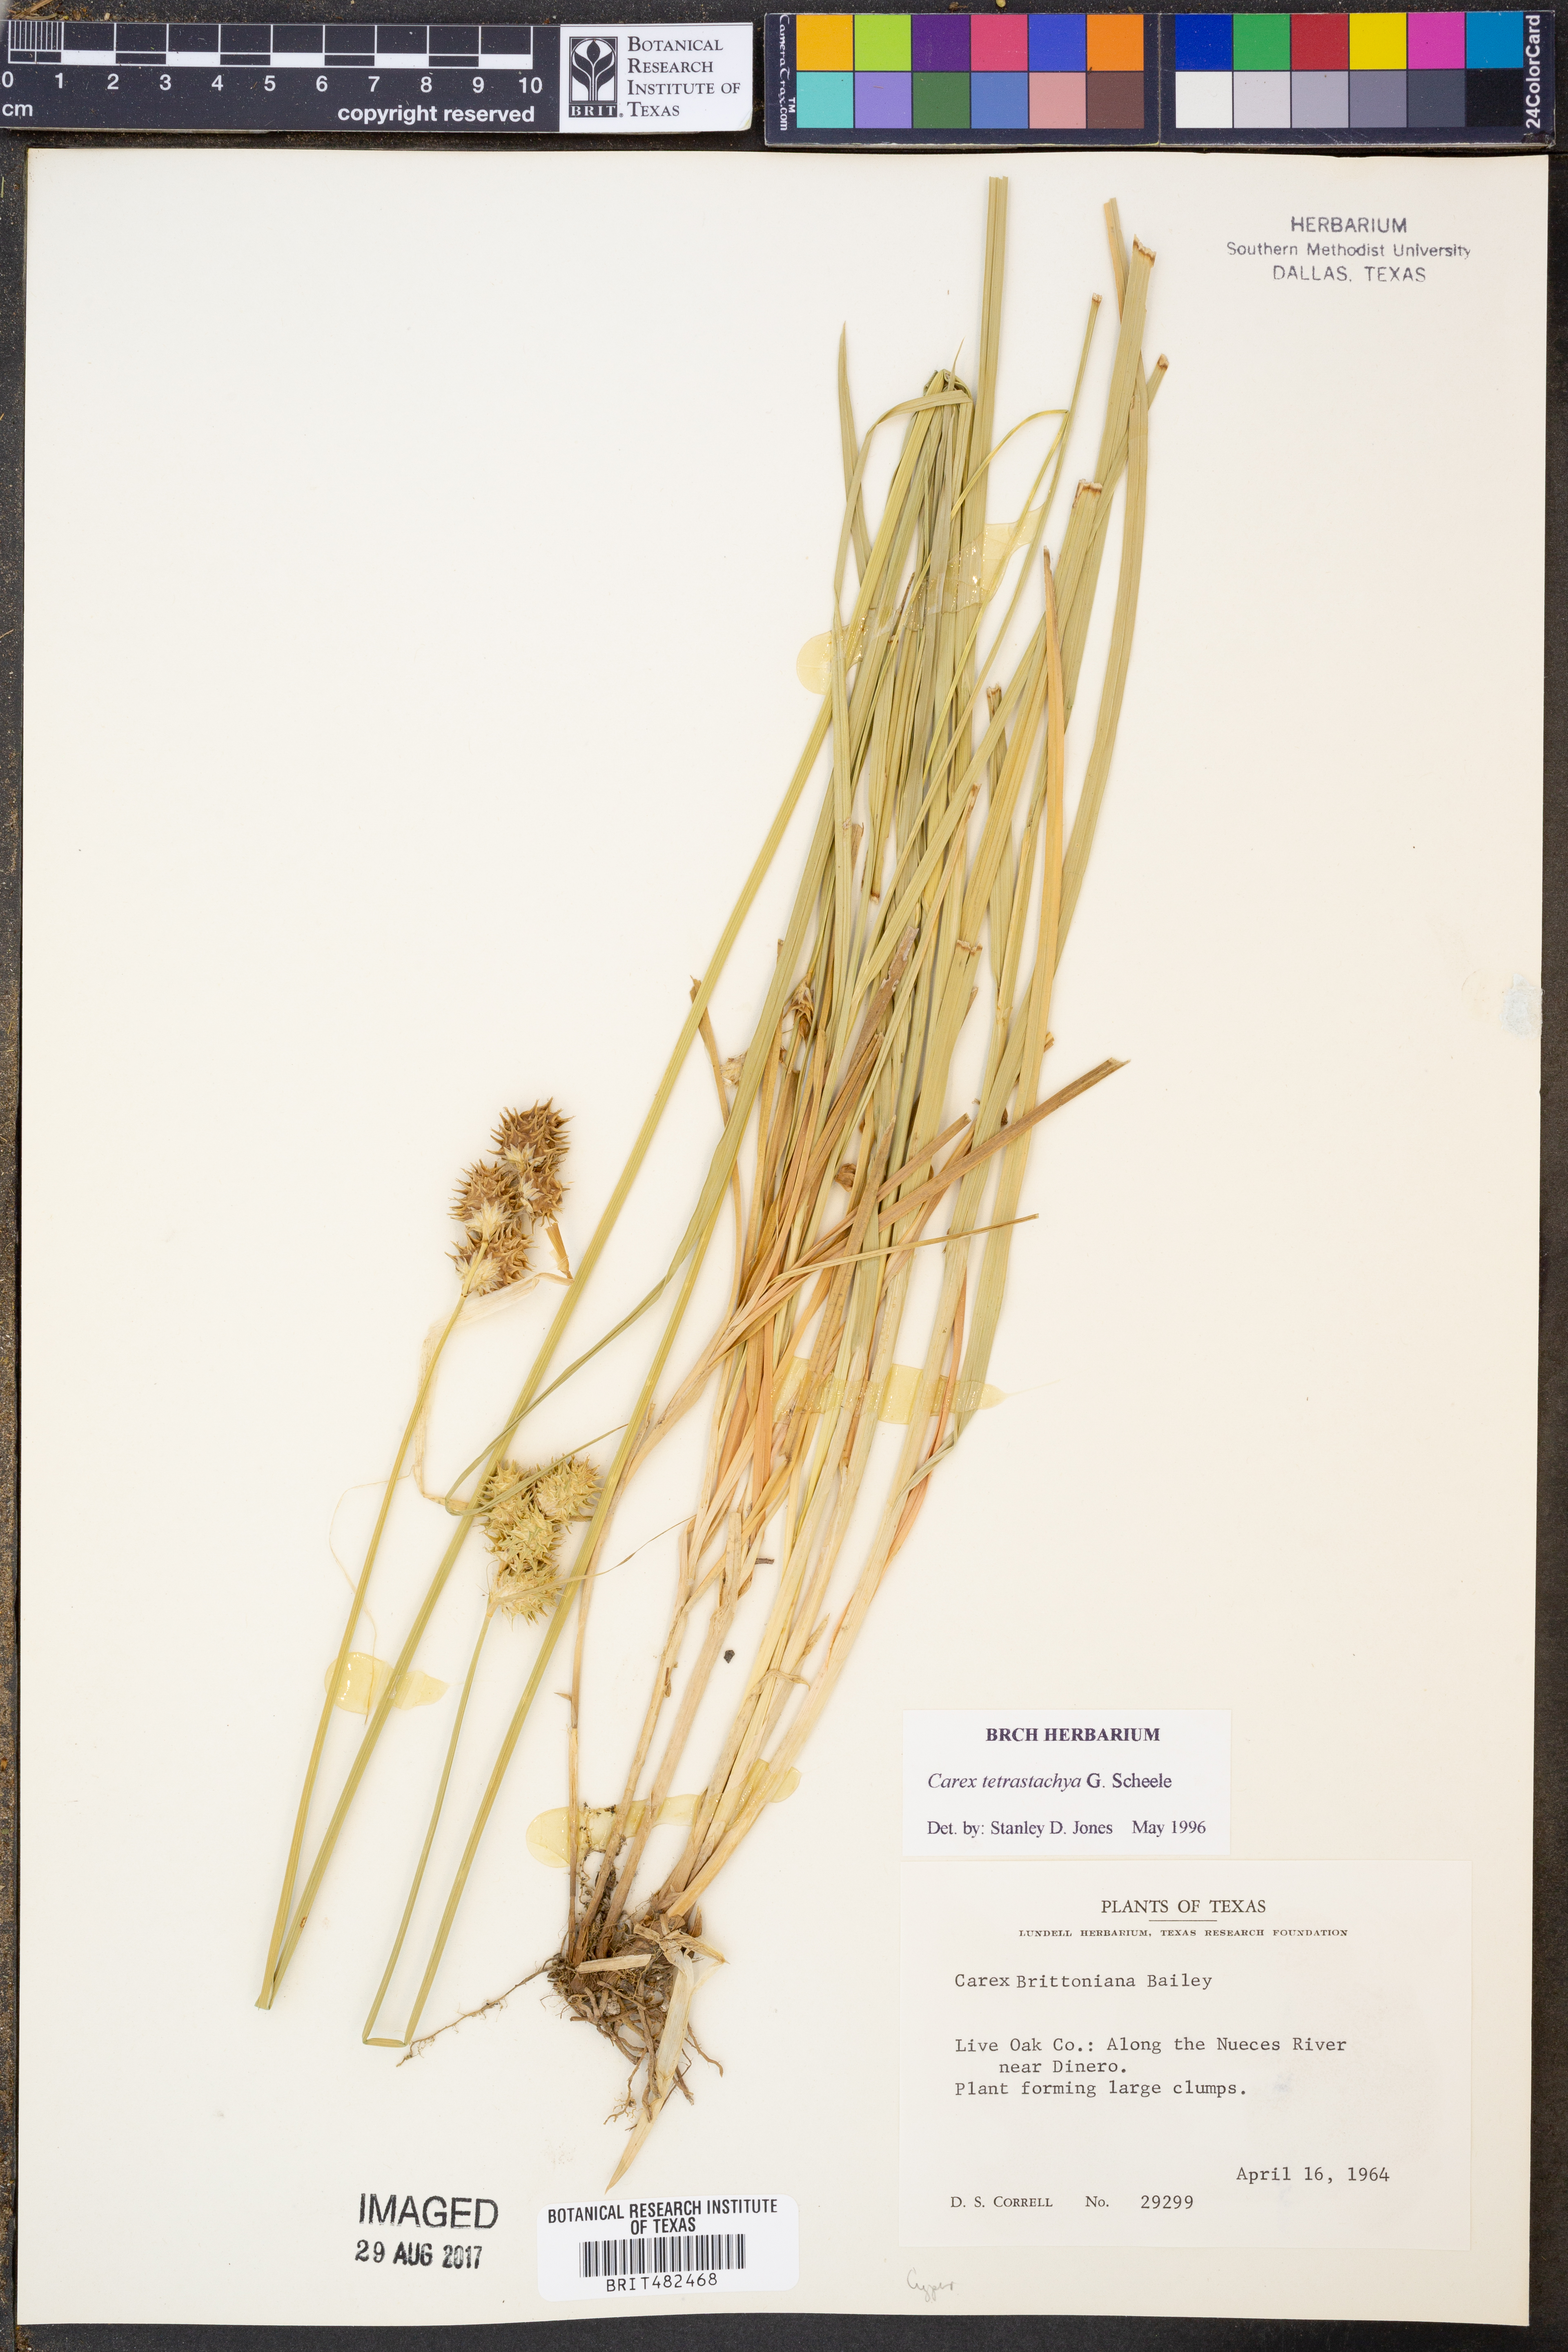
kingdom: Plantae
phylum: Tracheophyta
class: Liliopsida
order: Poales
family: Cyperaceae
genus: Carex
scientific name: Carex tetrastachya
